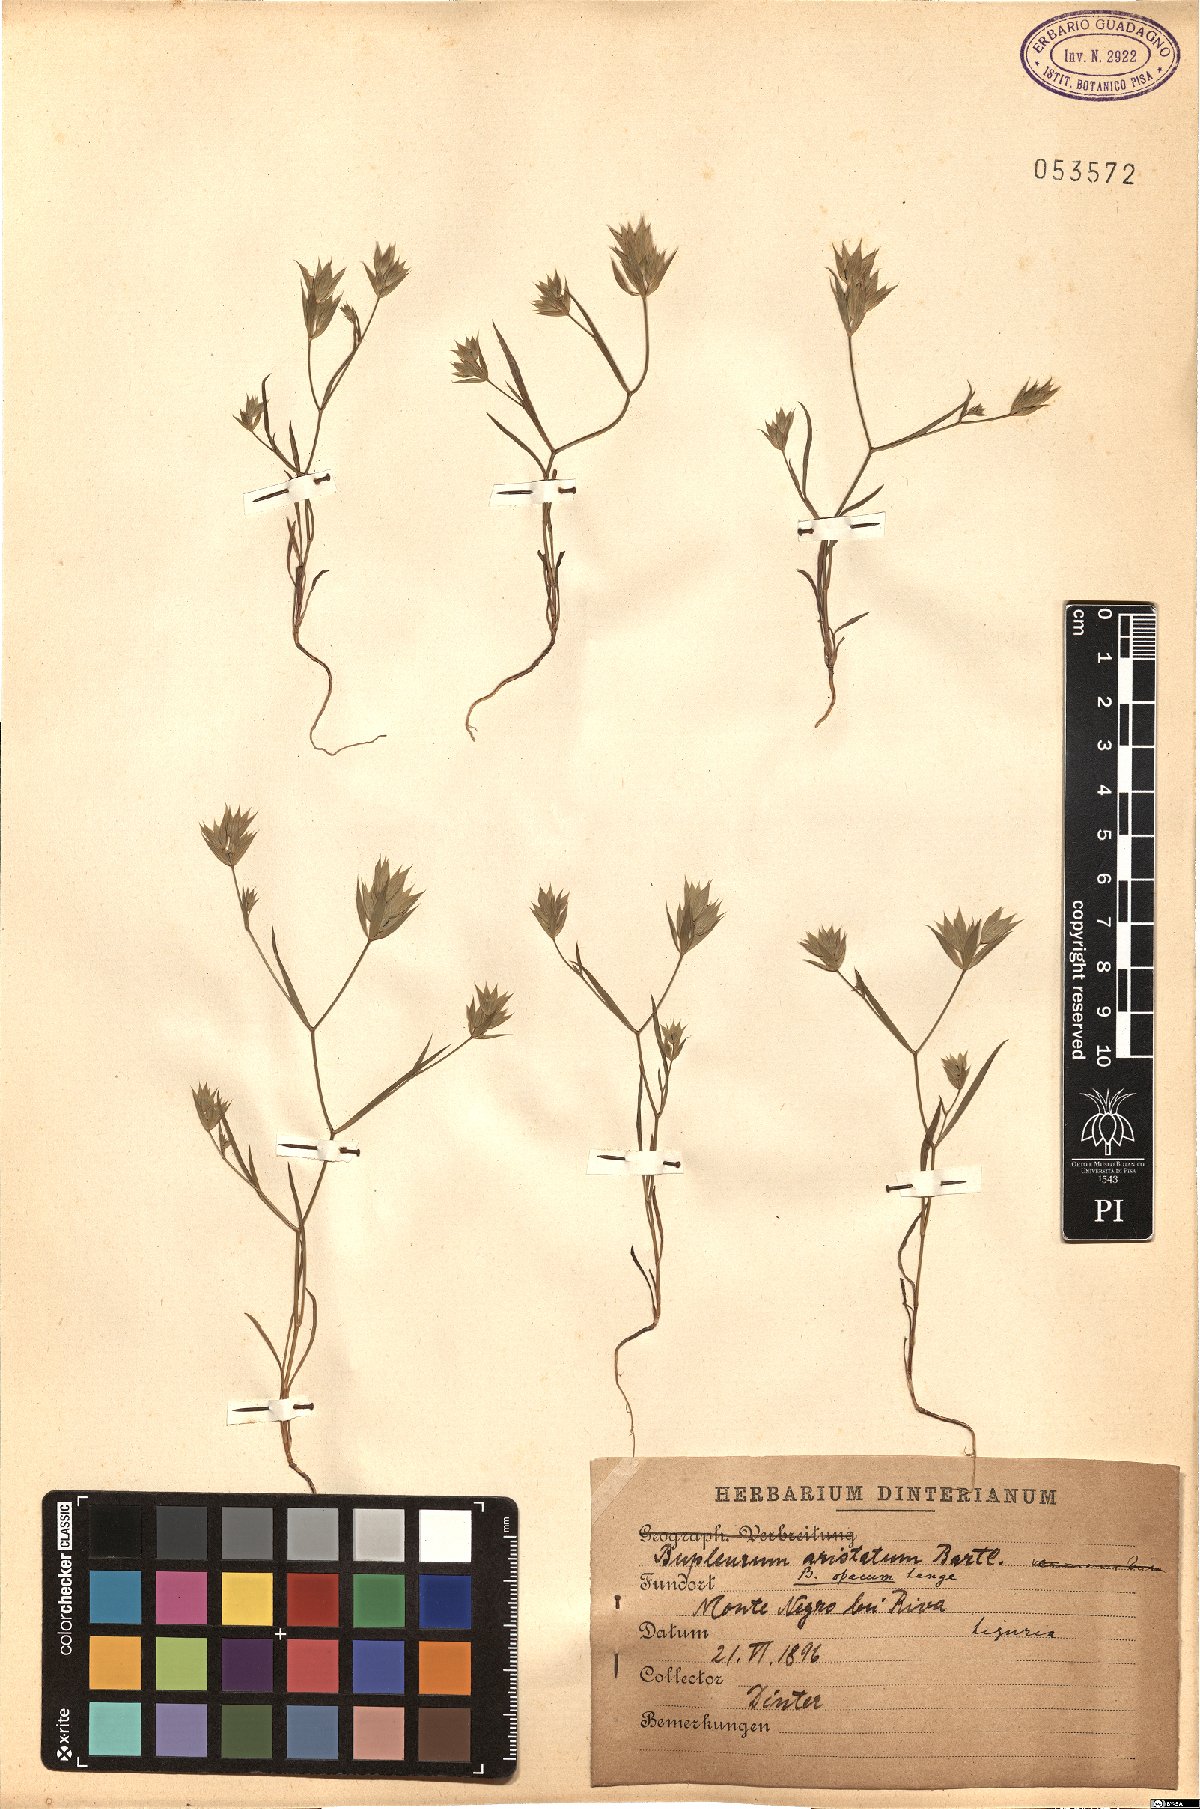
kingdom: Plantae
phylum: Tracheophyta
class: Magnoliopsida
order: Apiales
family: Apiaceae
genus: Bupleurum
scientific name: Bupleurum aristatum
